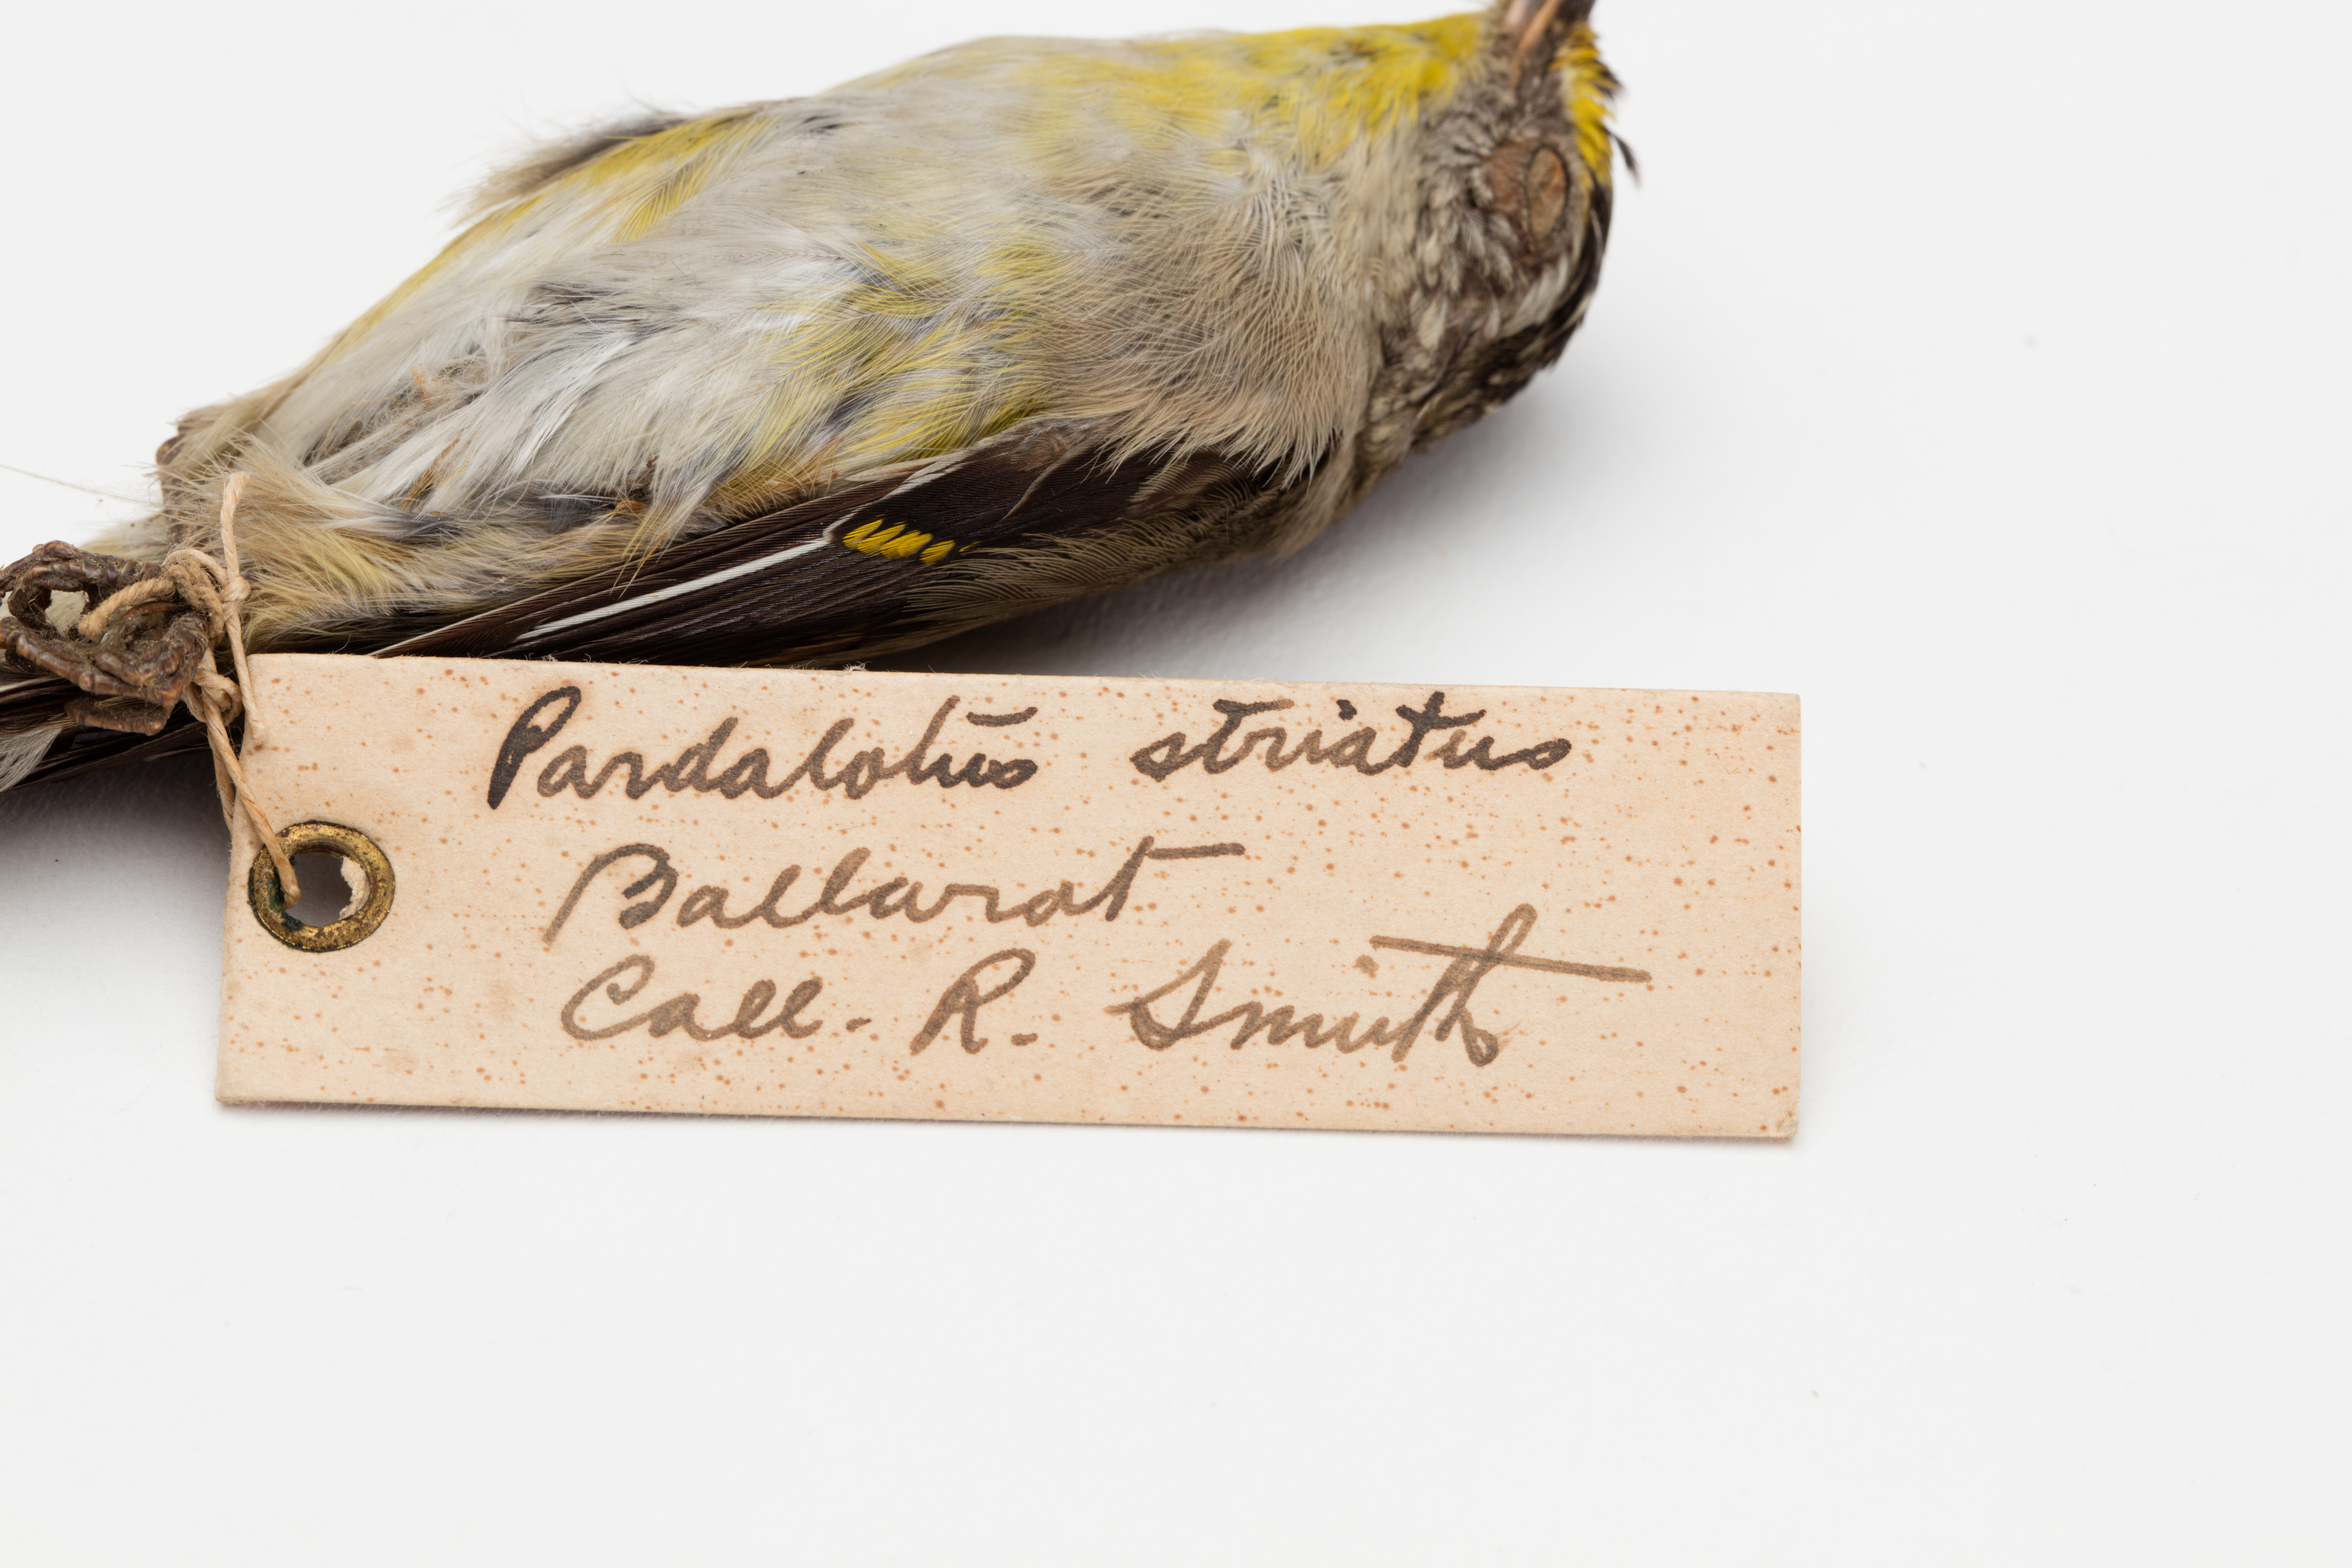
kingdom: Animalia
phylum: Chordata
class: Aves
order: Passeriformes
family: Pardalotidae
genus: Pardalotus
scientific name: Pardalotus striatus
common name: Striated pardalote
